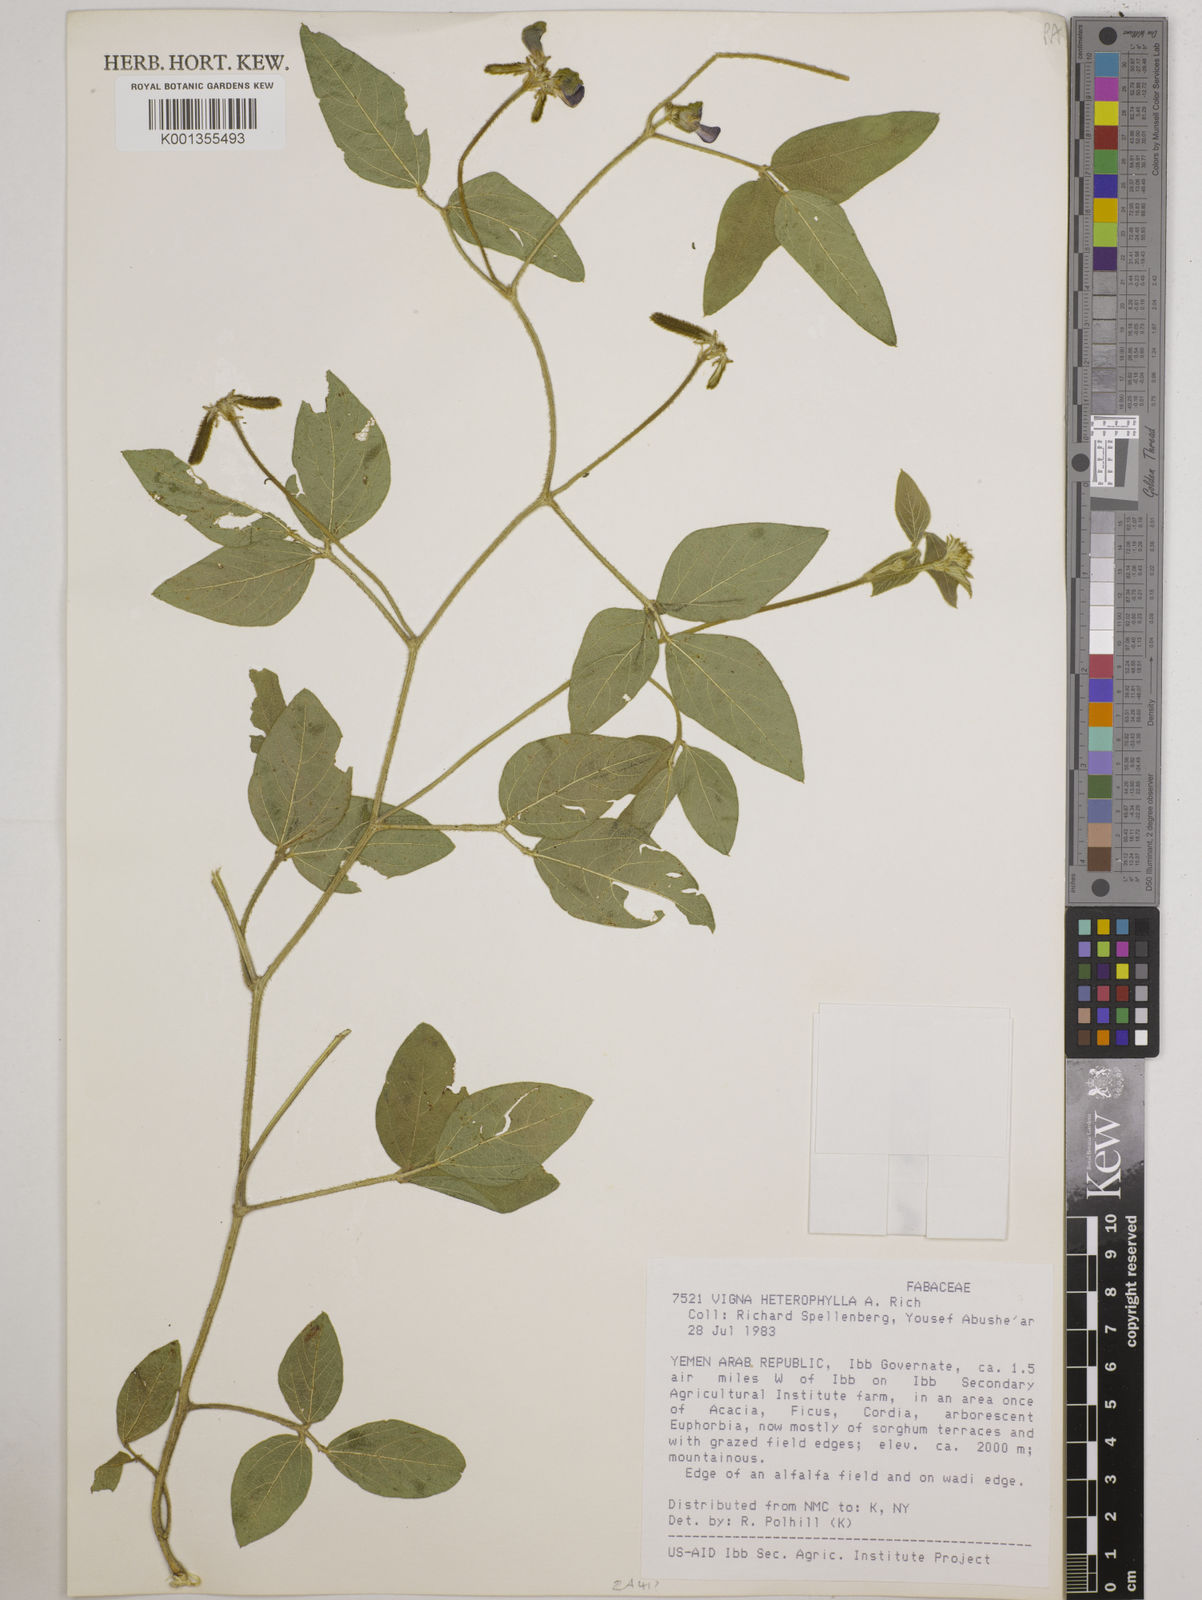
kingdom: Plantae
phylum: Tracheophyta
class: Magnoliopsida
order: Fabales
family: Fabaceae
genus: Vigna
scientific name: Vigna heterophylla
